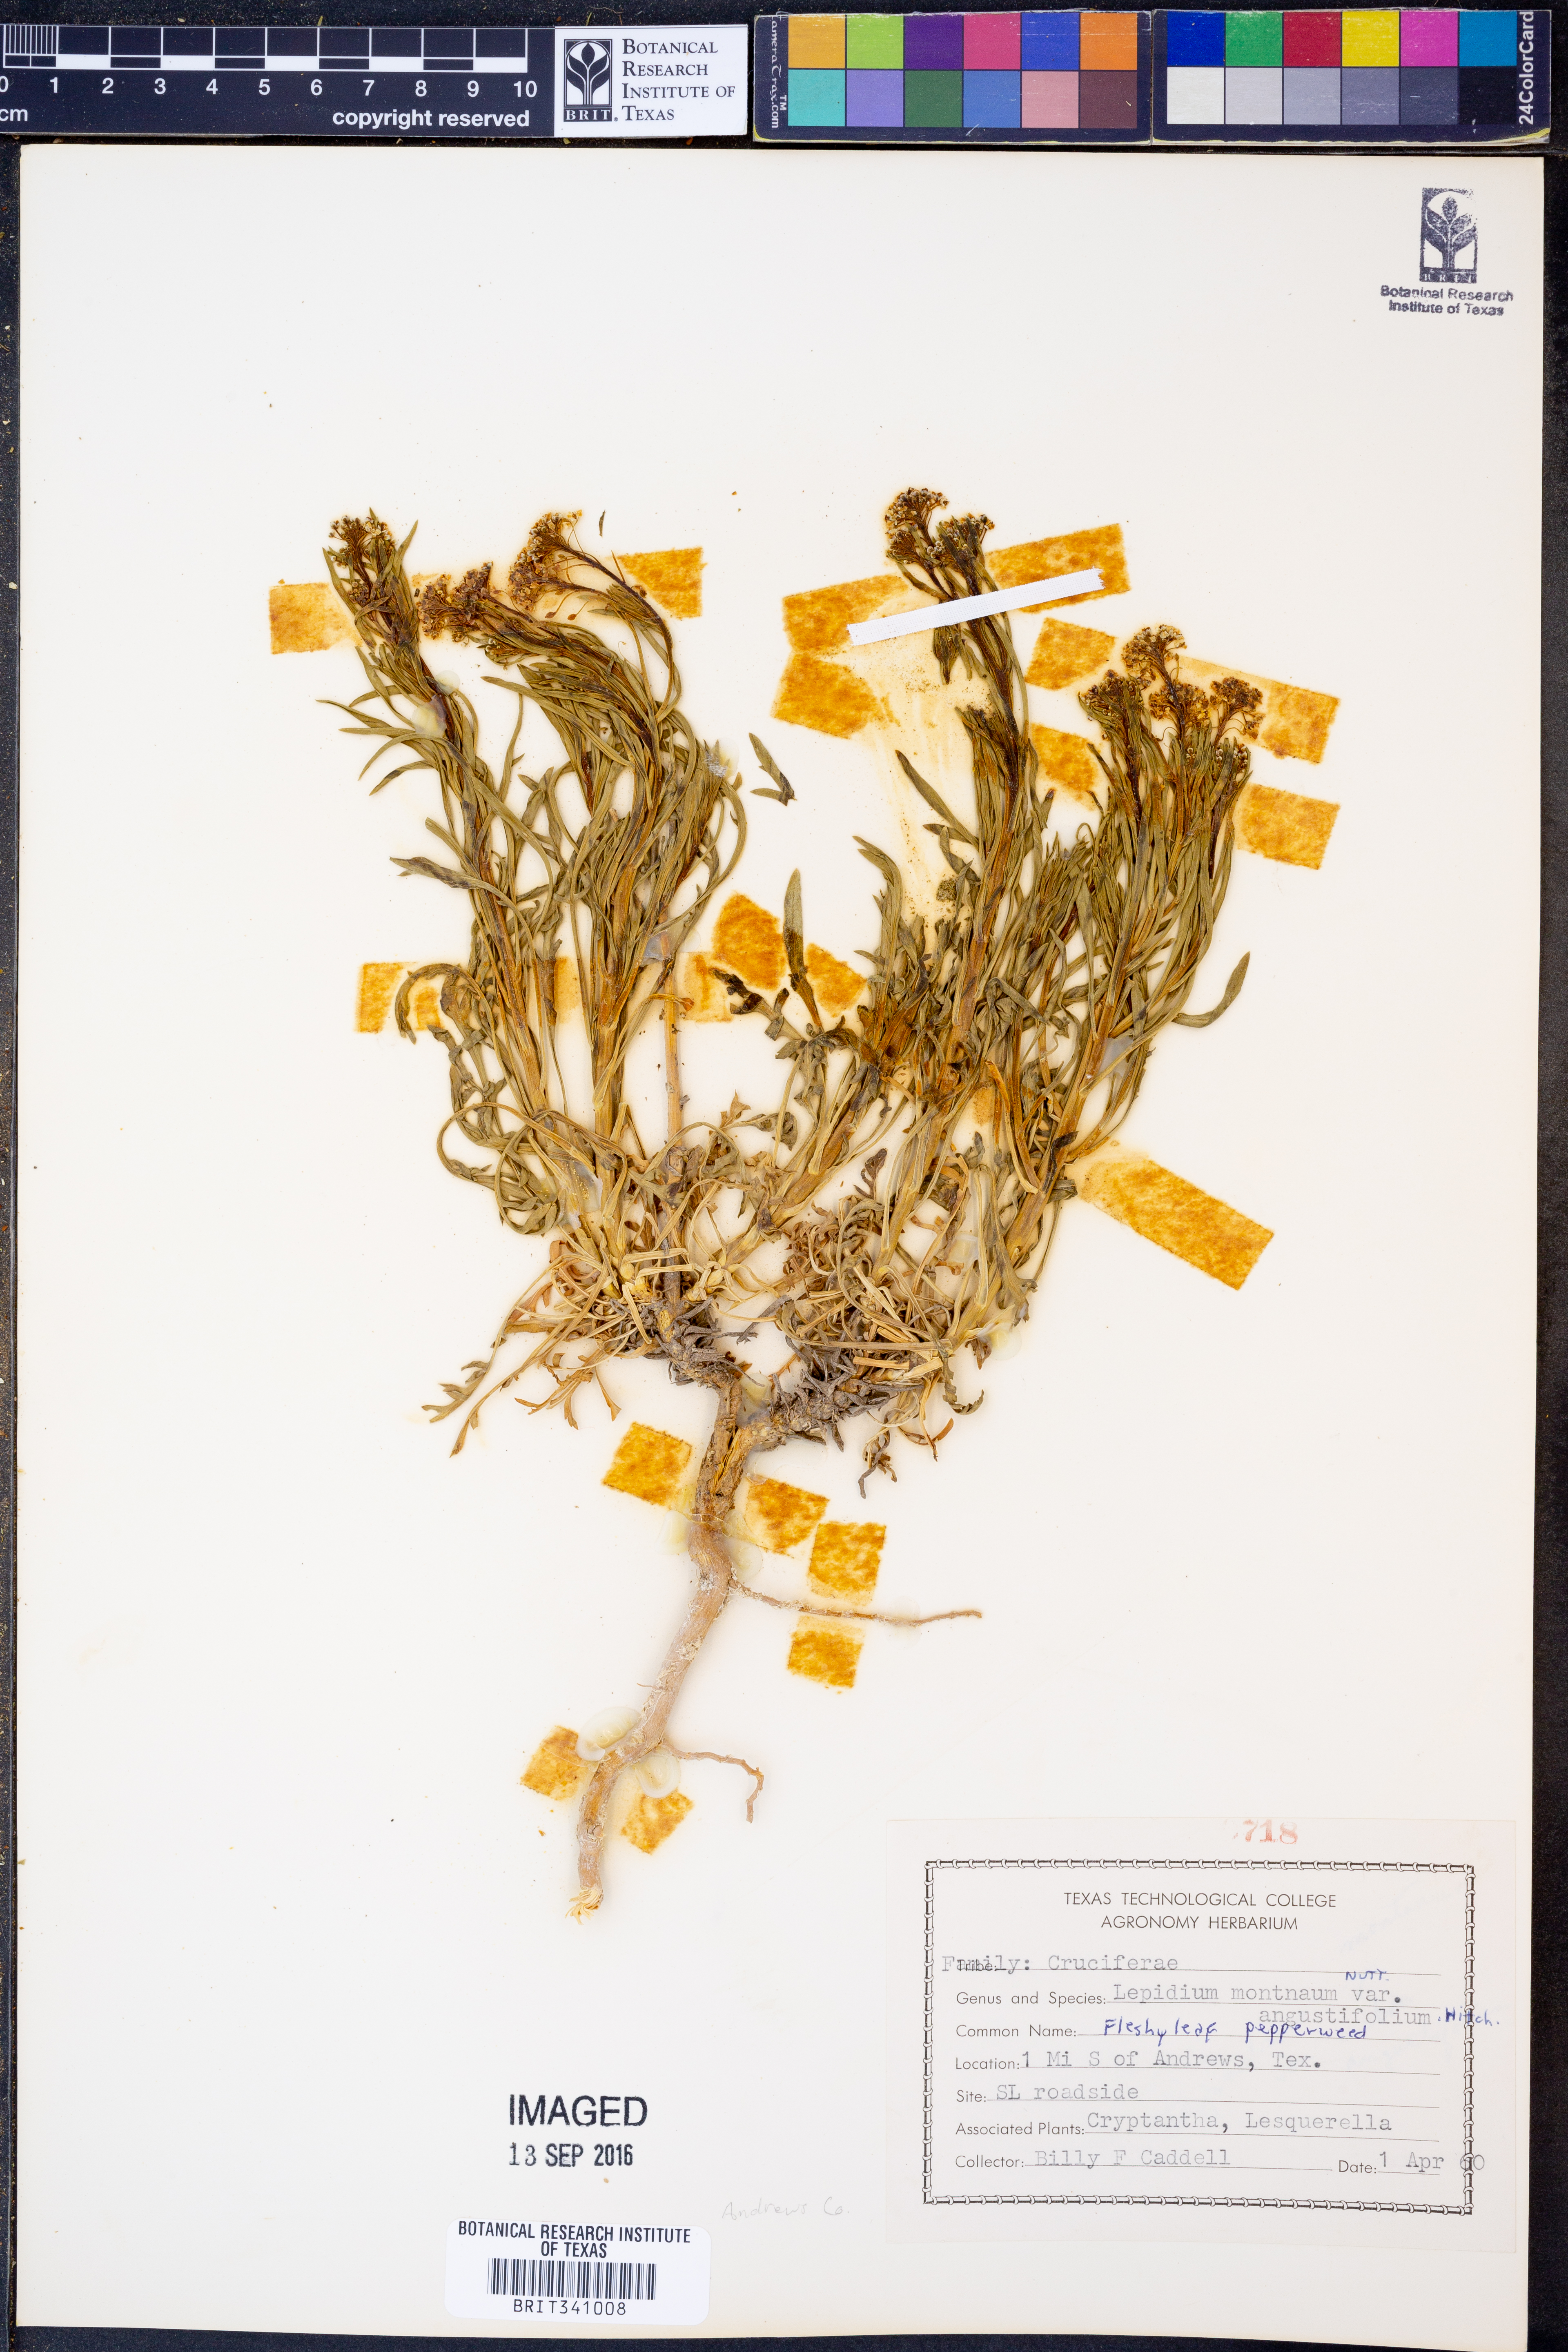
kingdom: Plantae
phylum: Tracheophyta
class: Magnoliopsida
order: Brassicales
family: Brassicaceae
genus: Lepidium
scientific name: Lepidium alyssoides
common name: Mesa pepperweed
